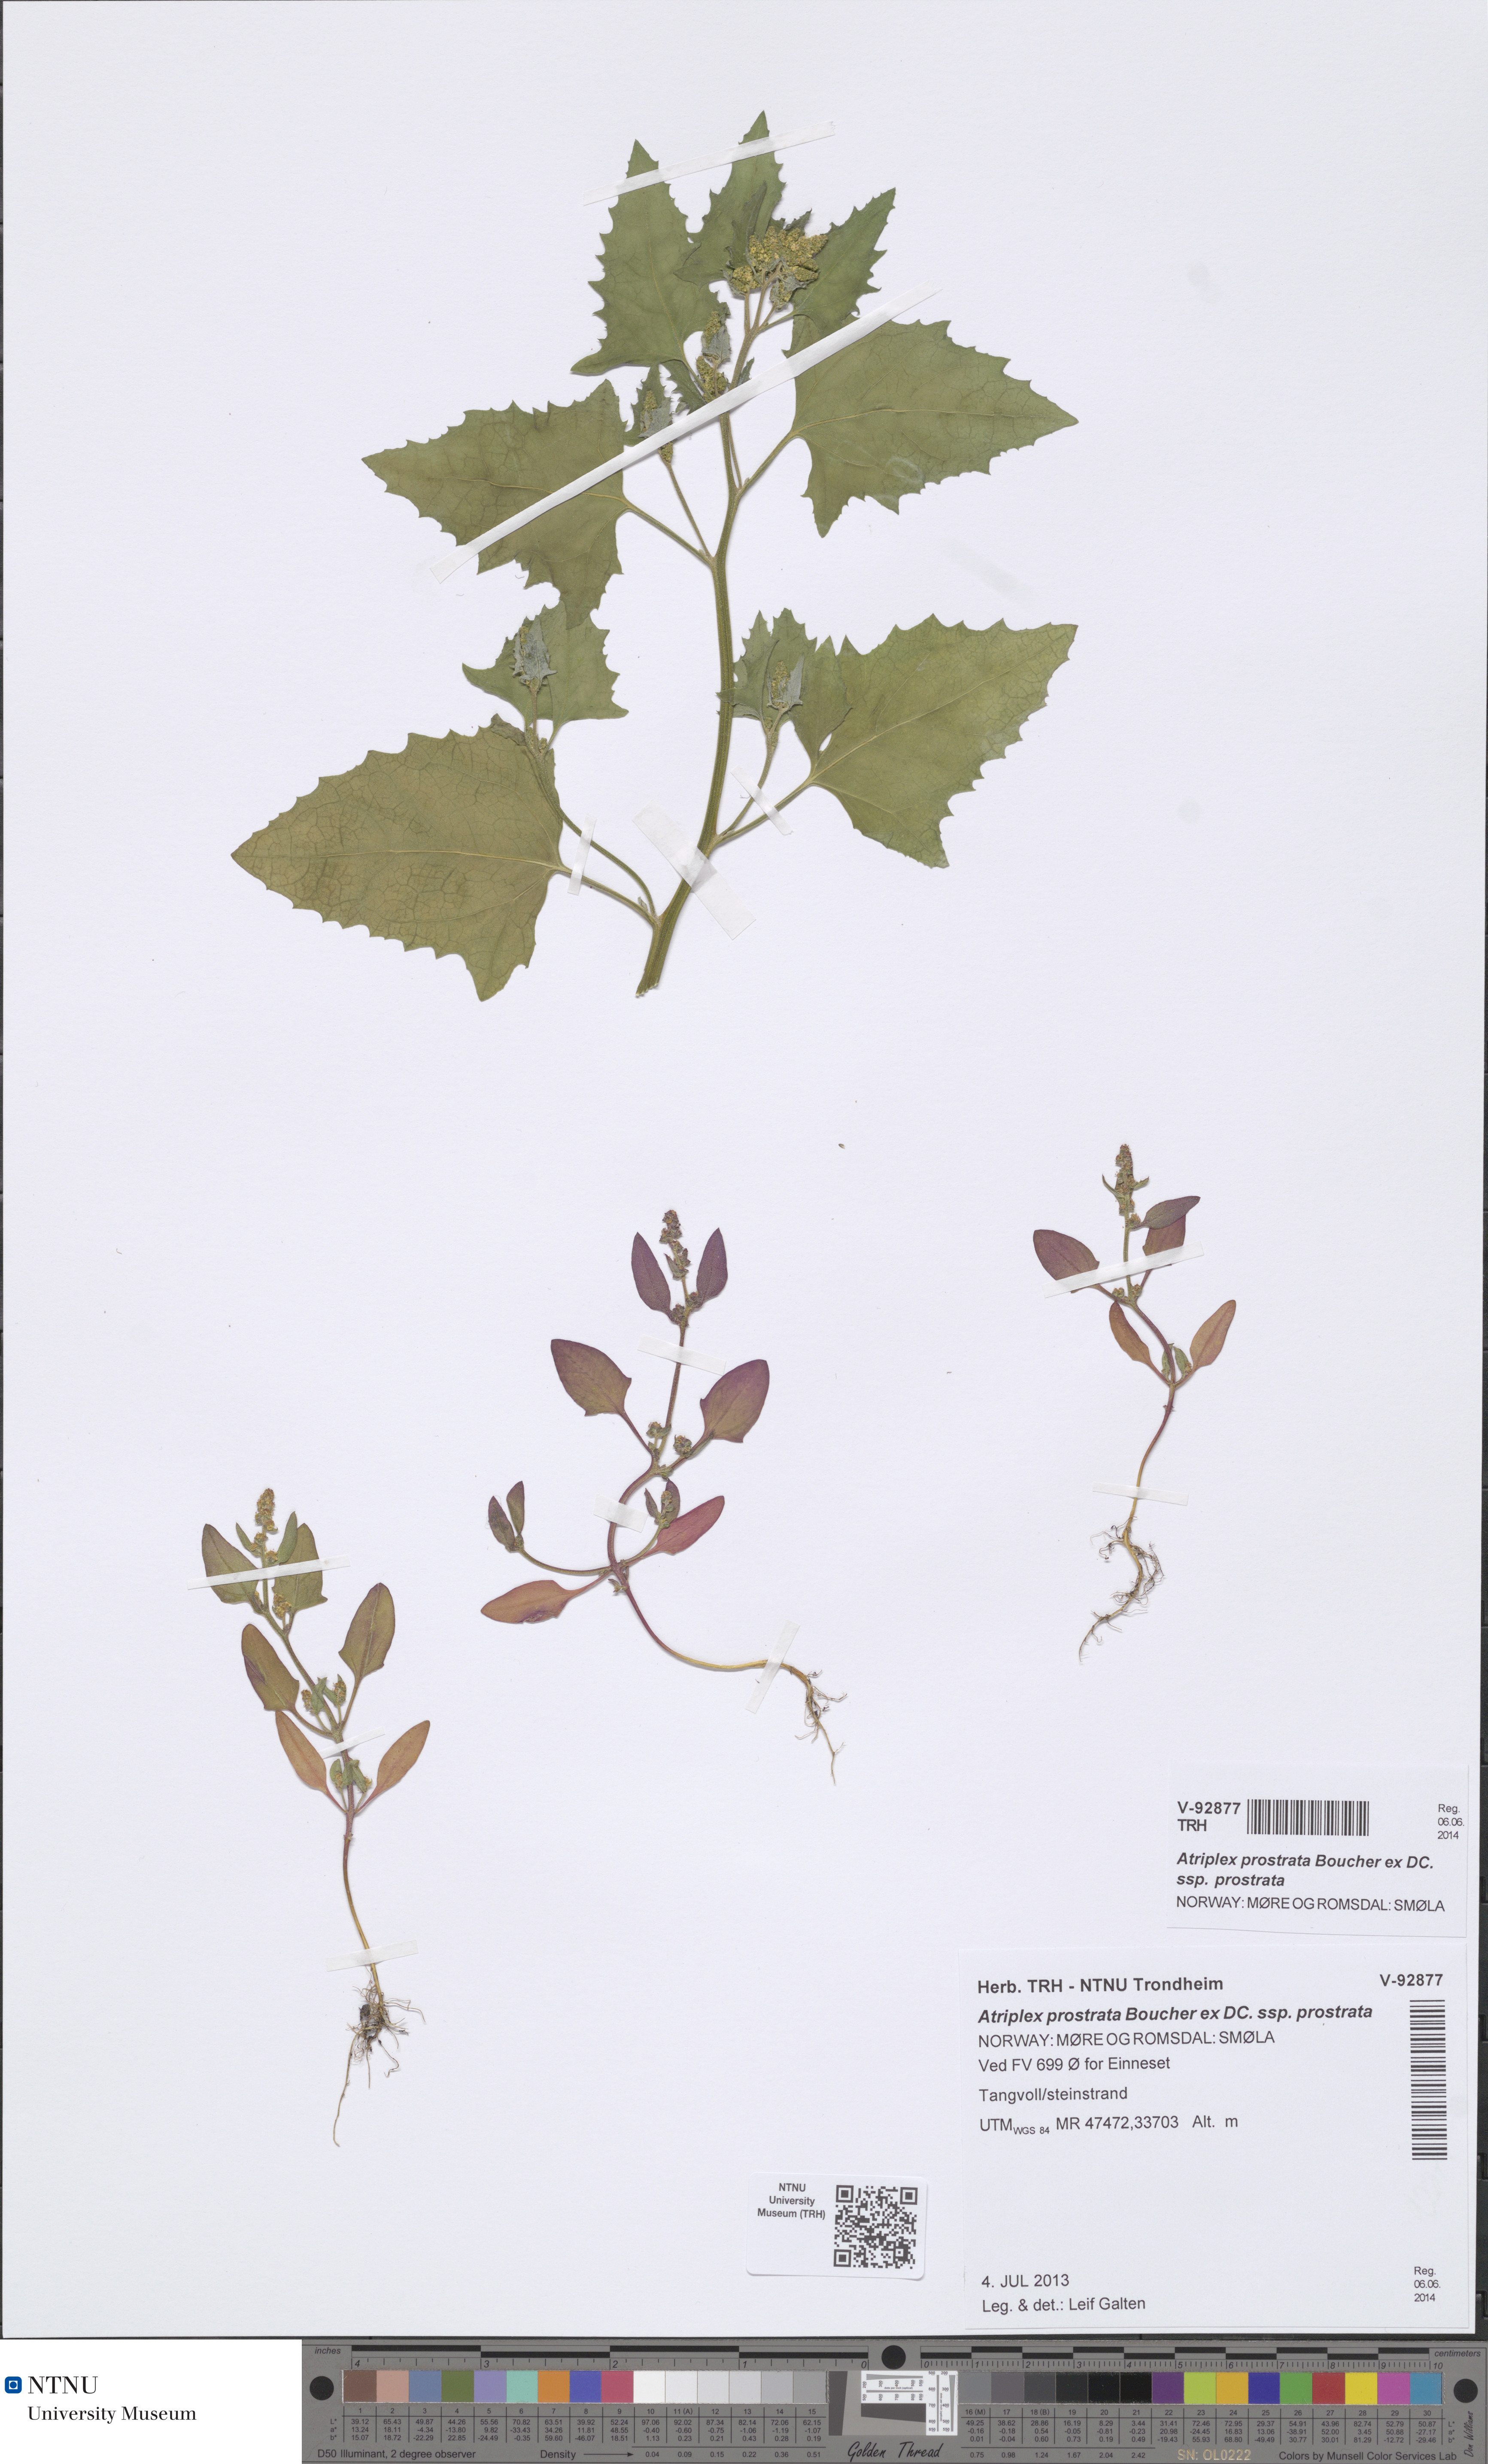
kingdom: Plantae
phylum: Tracheophyta
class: Magnoliopsida
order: Caryophyllales
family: Amaranthaceae
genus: Atriplex
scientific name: Atriplex prostrata
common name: Spear-leaved orache
